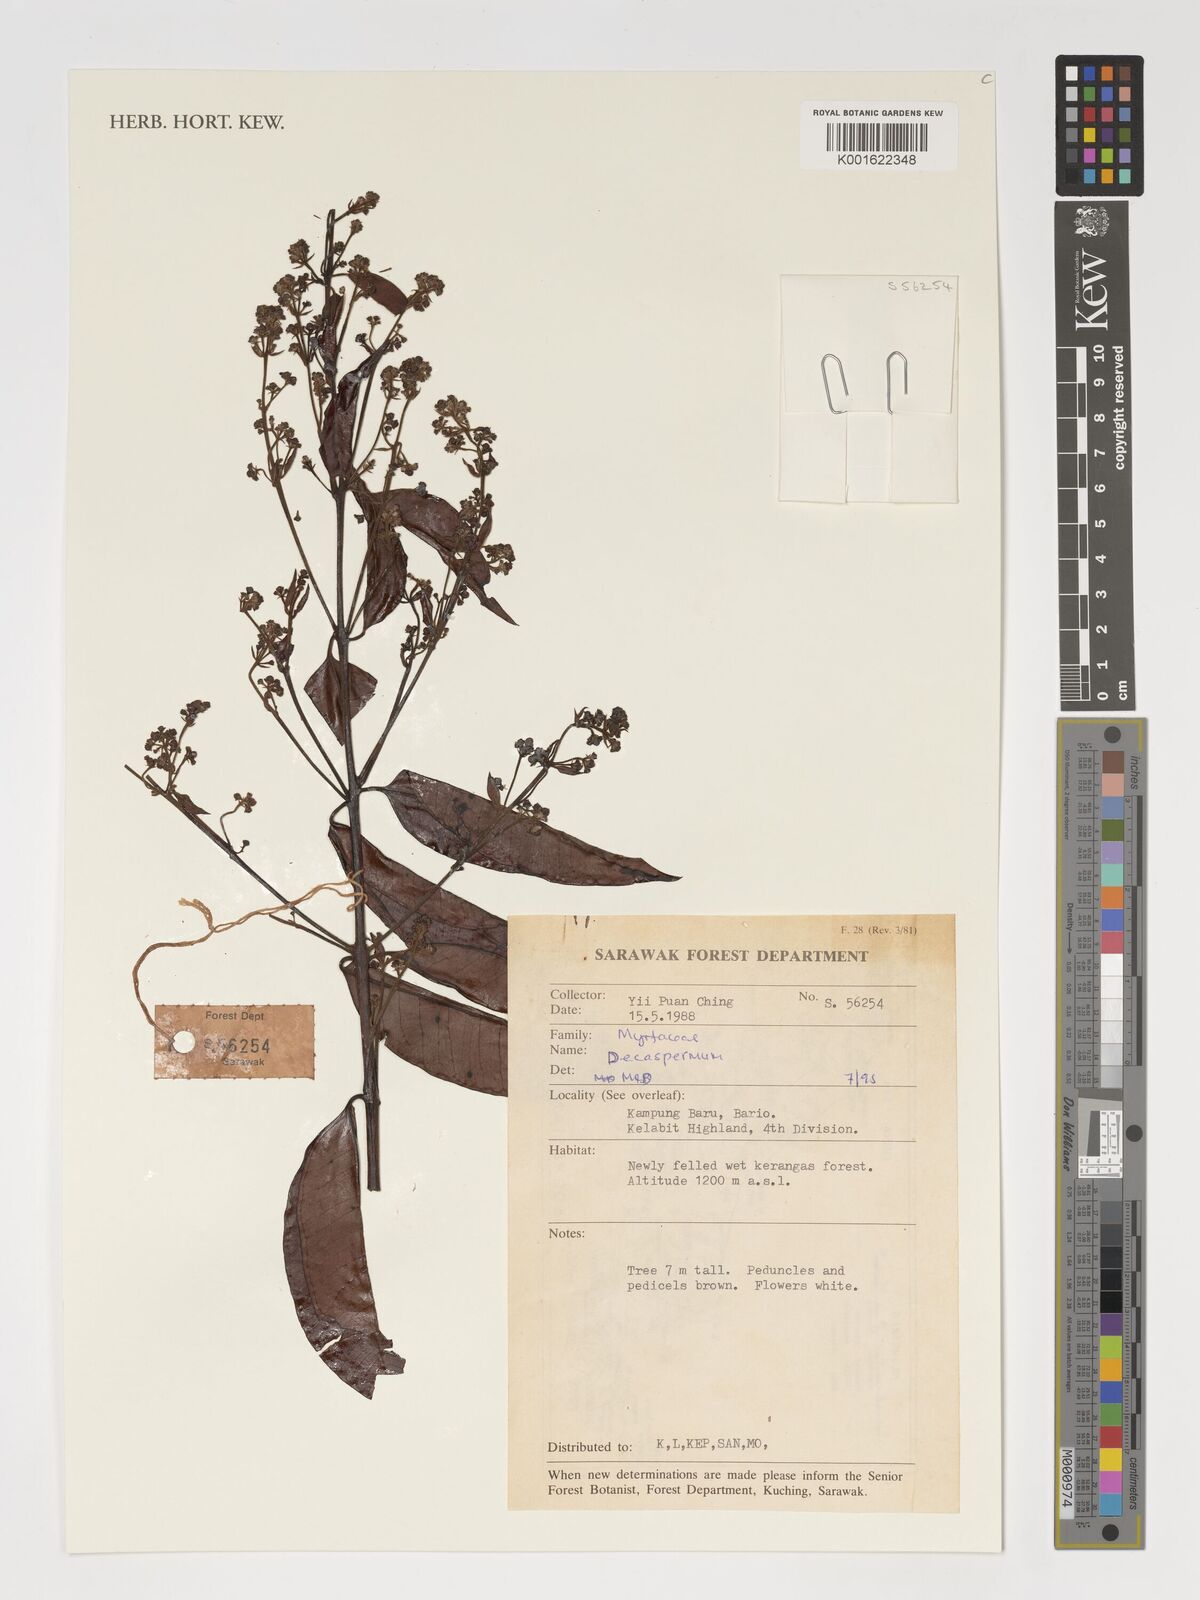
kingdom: Plantae
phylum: Tracheophyta
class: Magnoliopsida
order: Myrtales
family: Myrtaceae
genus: Decaspermum
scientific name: Decaspermum
